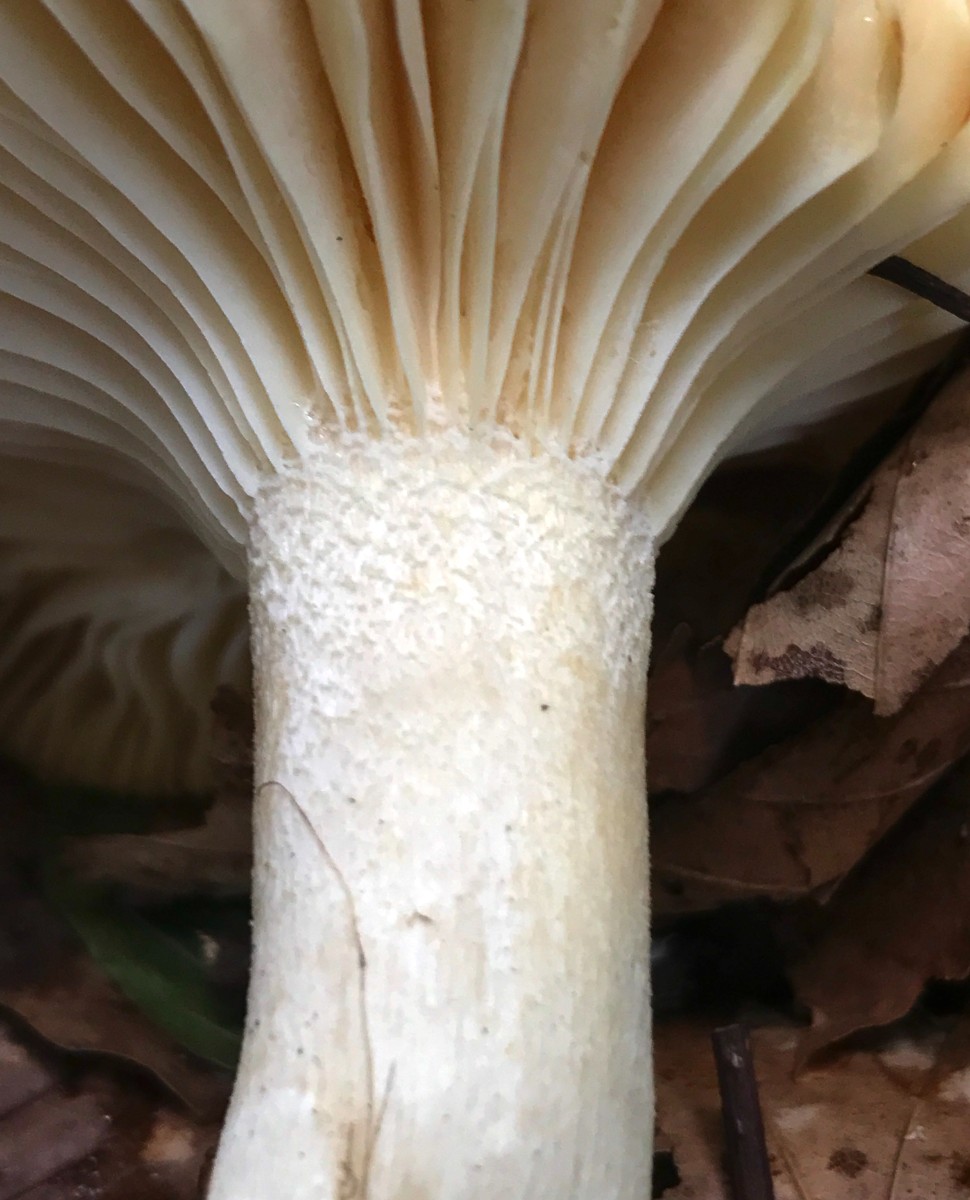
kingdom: Fungi
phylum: Basidiomycota
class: Agaricomycetes
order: Agaricales
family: Hygrophoraceae
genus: Hygrophorus
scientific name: Hygrophorus discoxanthus
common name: ildelugtende sneglehat
